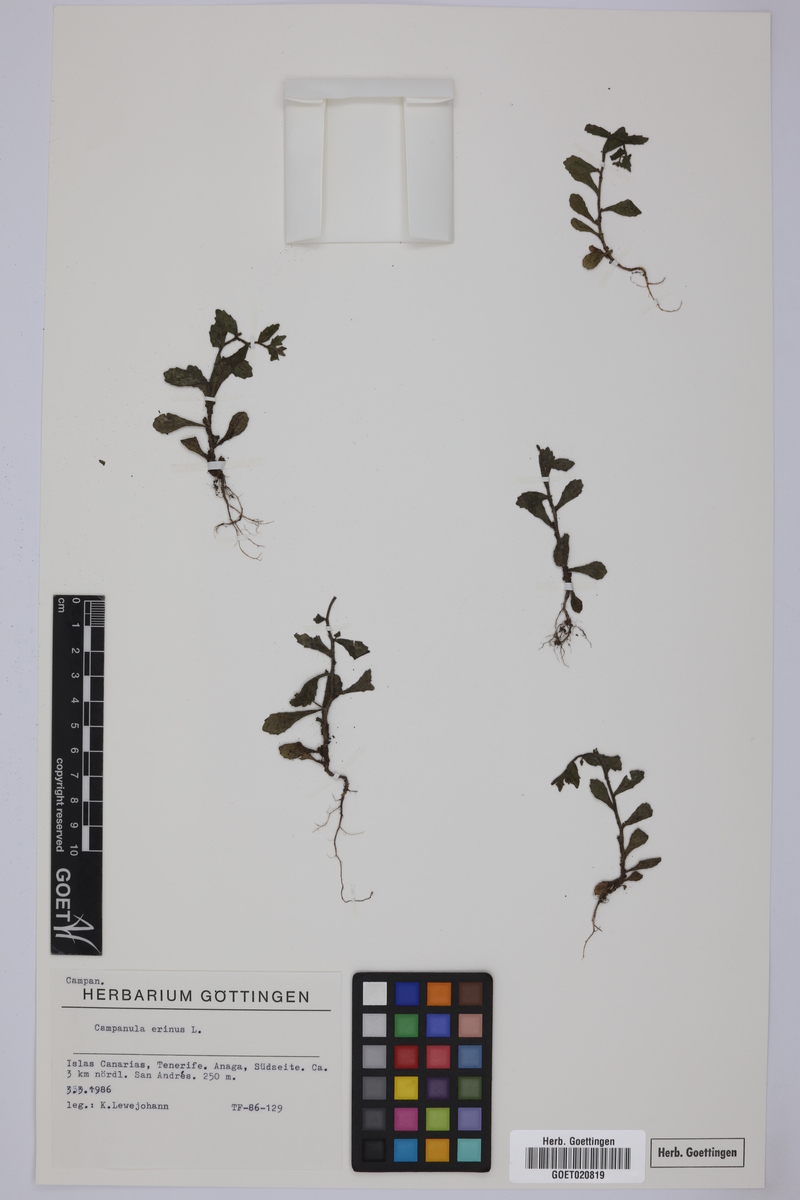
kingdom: Plantae
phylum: Tracheophyta
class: Magnoliopsida
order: Asterales
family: Campanulaceae
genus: Campanula
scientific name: Campanula erinus
